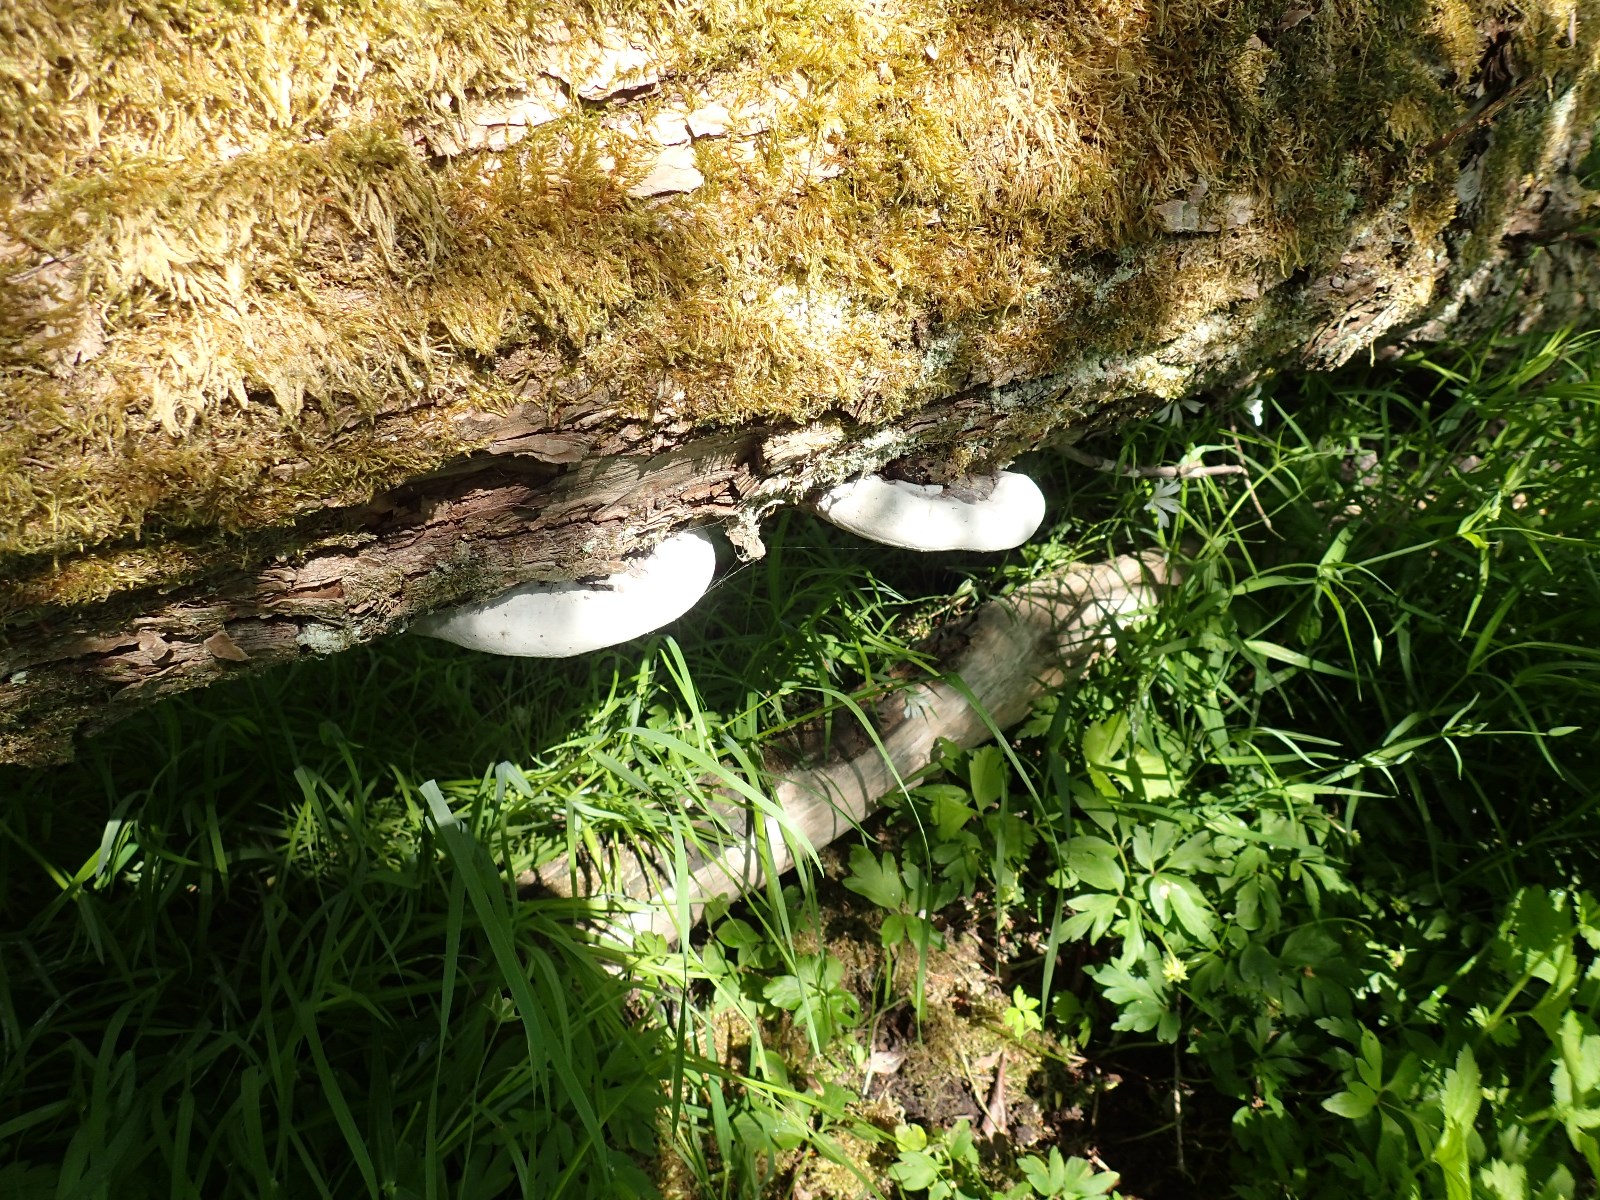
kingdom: Fungi
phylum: Basidiomycota
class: Agaricomycetes
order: Hymenochaetales
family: Hymenochaetaceae
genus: Phellinus
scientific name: Phellinus igniarius
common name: almindelig ildporesvamp
